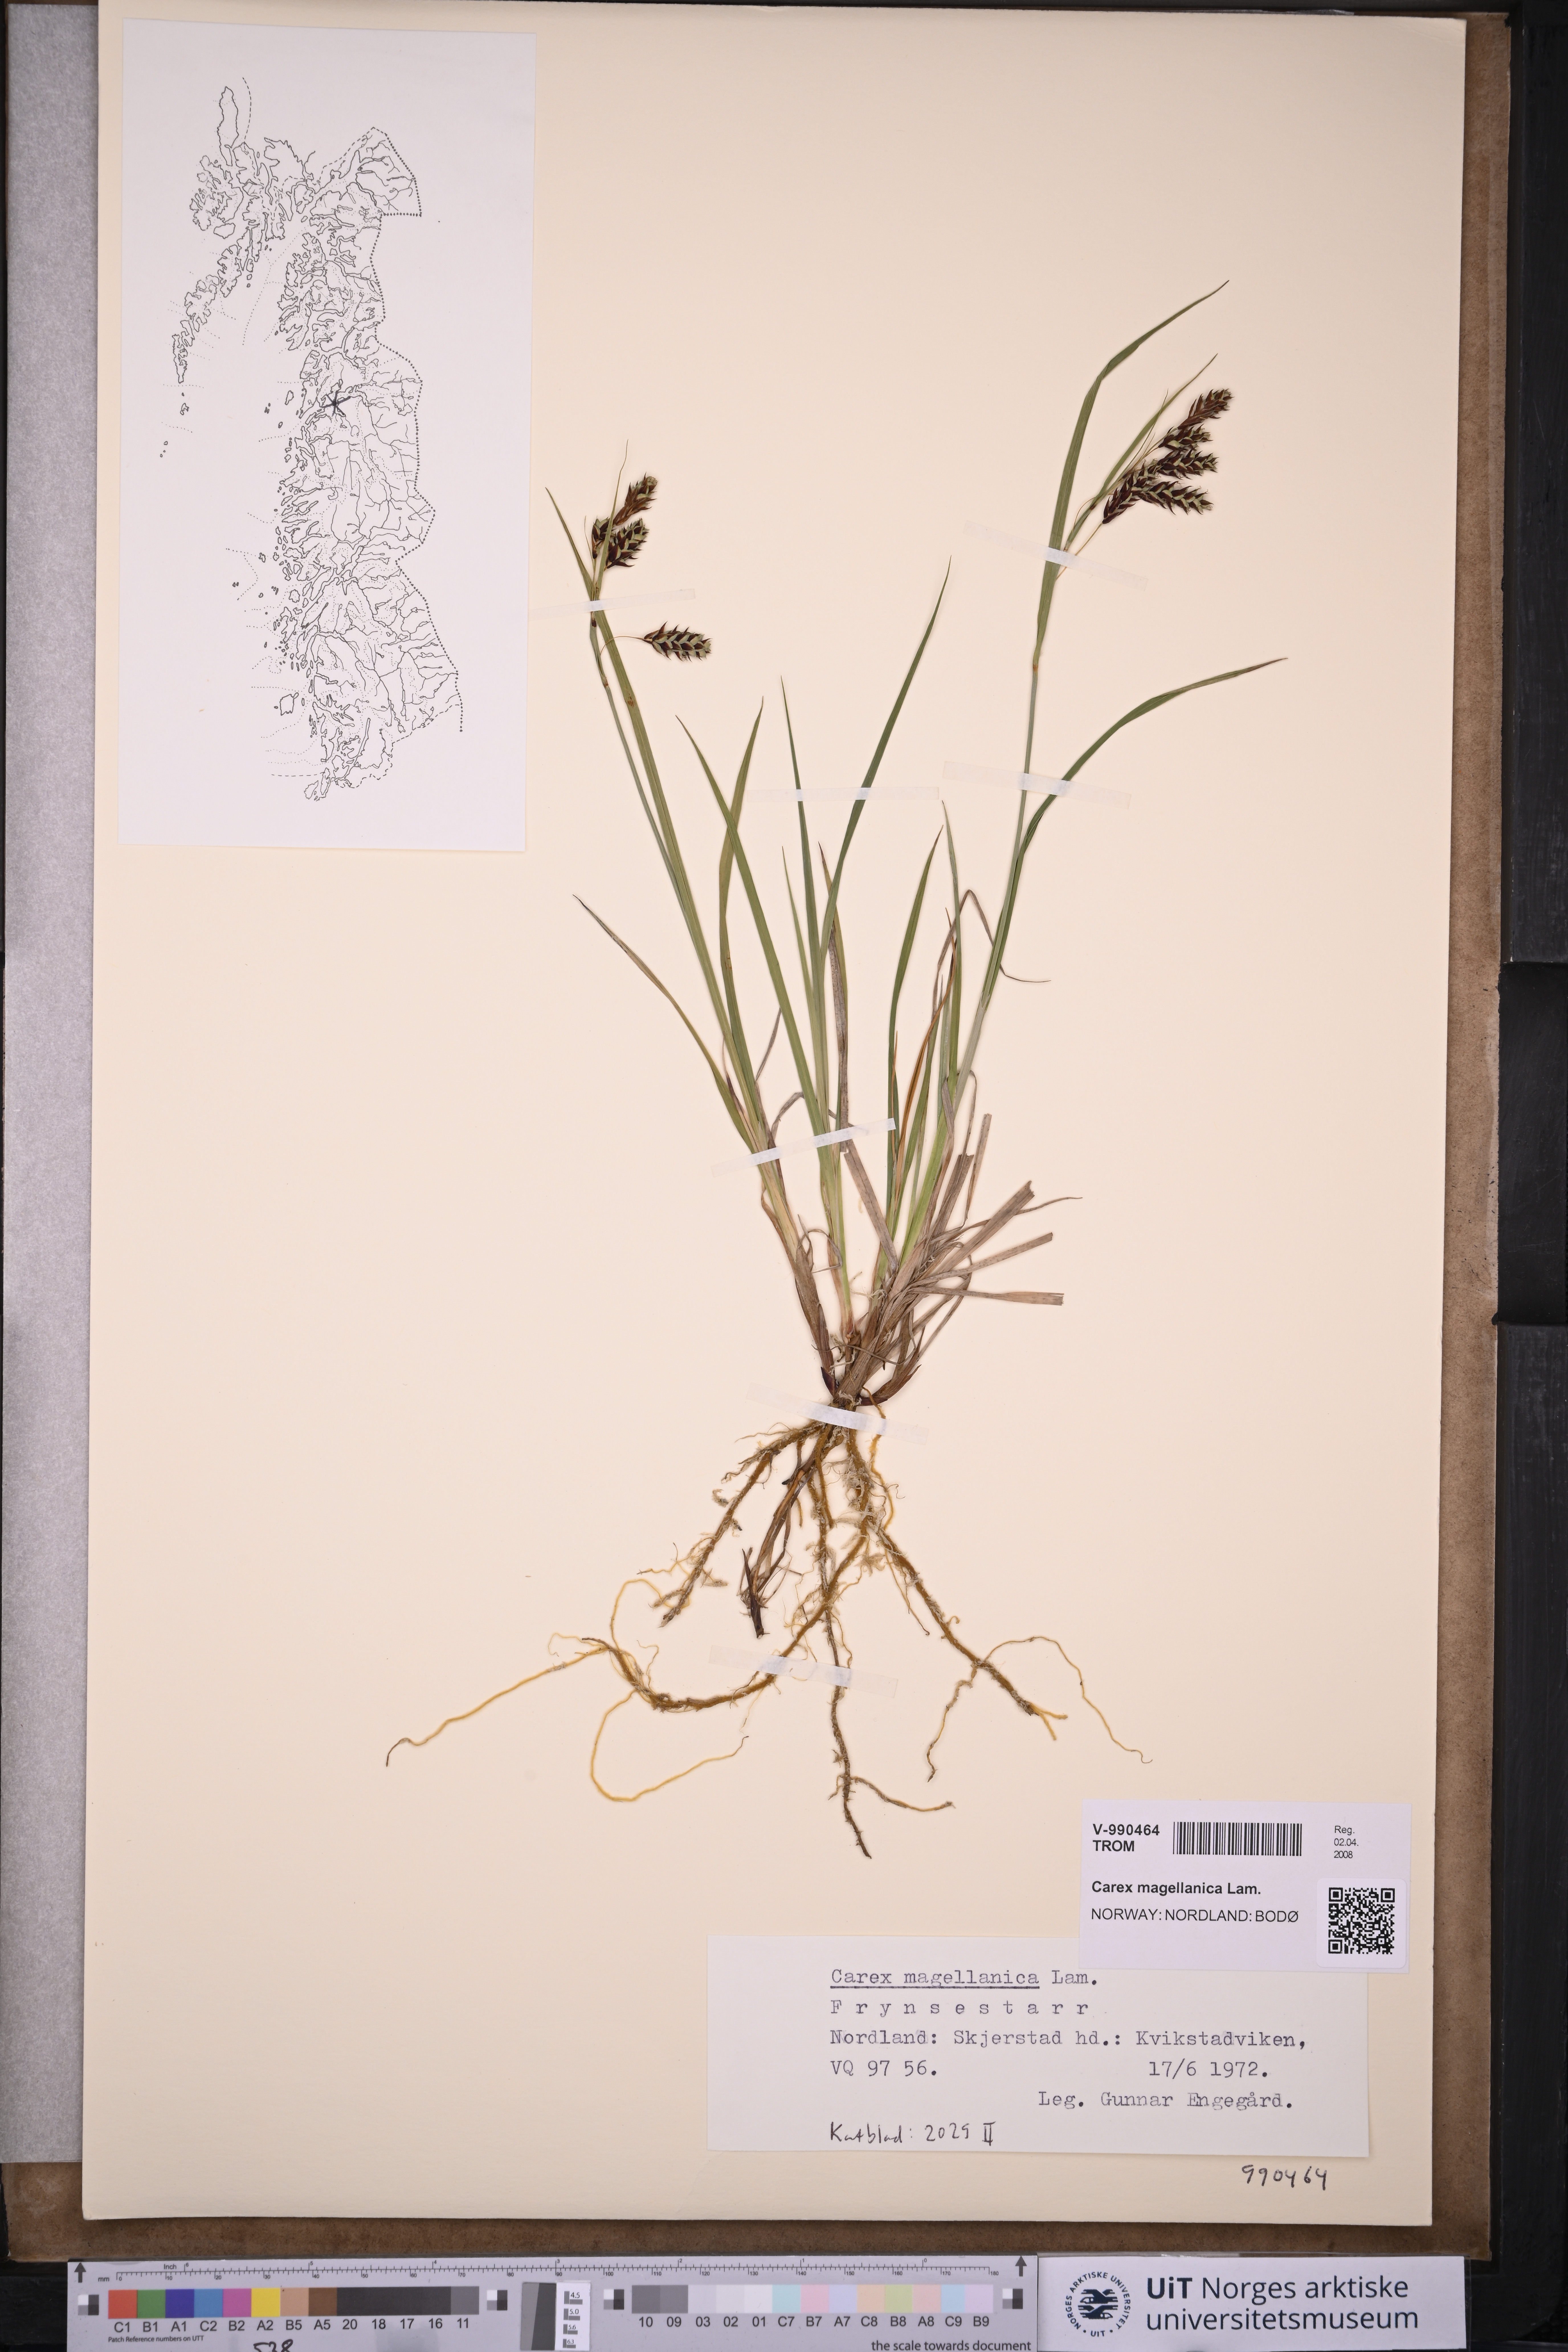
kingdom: Plantae
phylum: Tracheophyta
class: Liliopsida
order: Poales
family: Cyperaceae
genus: Carex
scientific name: Carex magellanica
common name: Bog sedge
